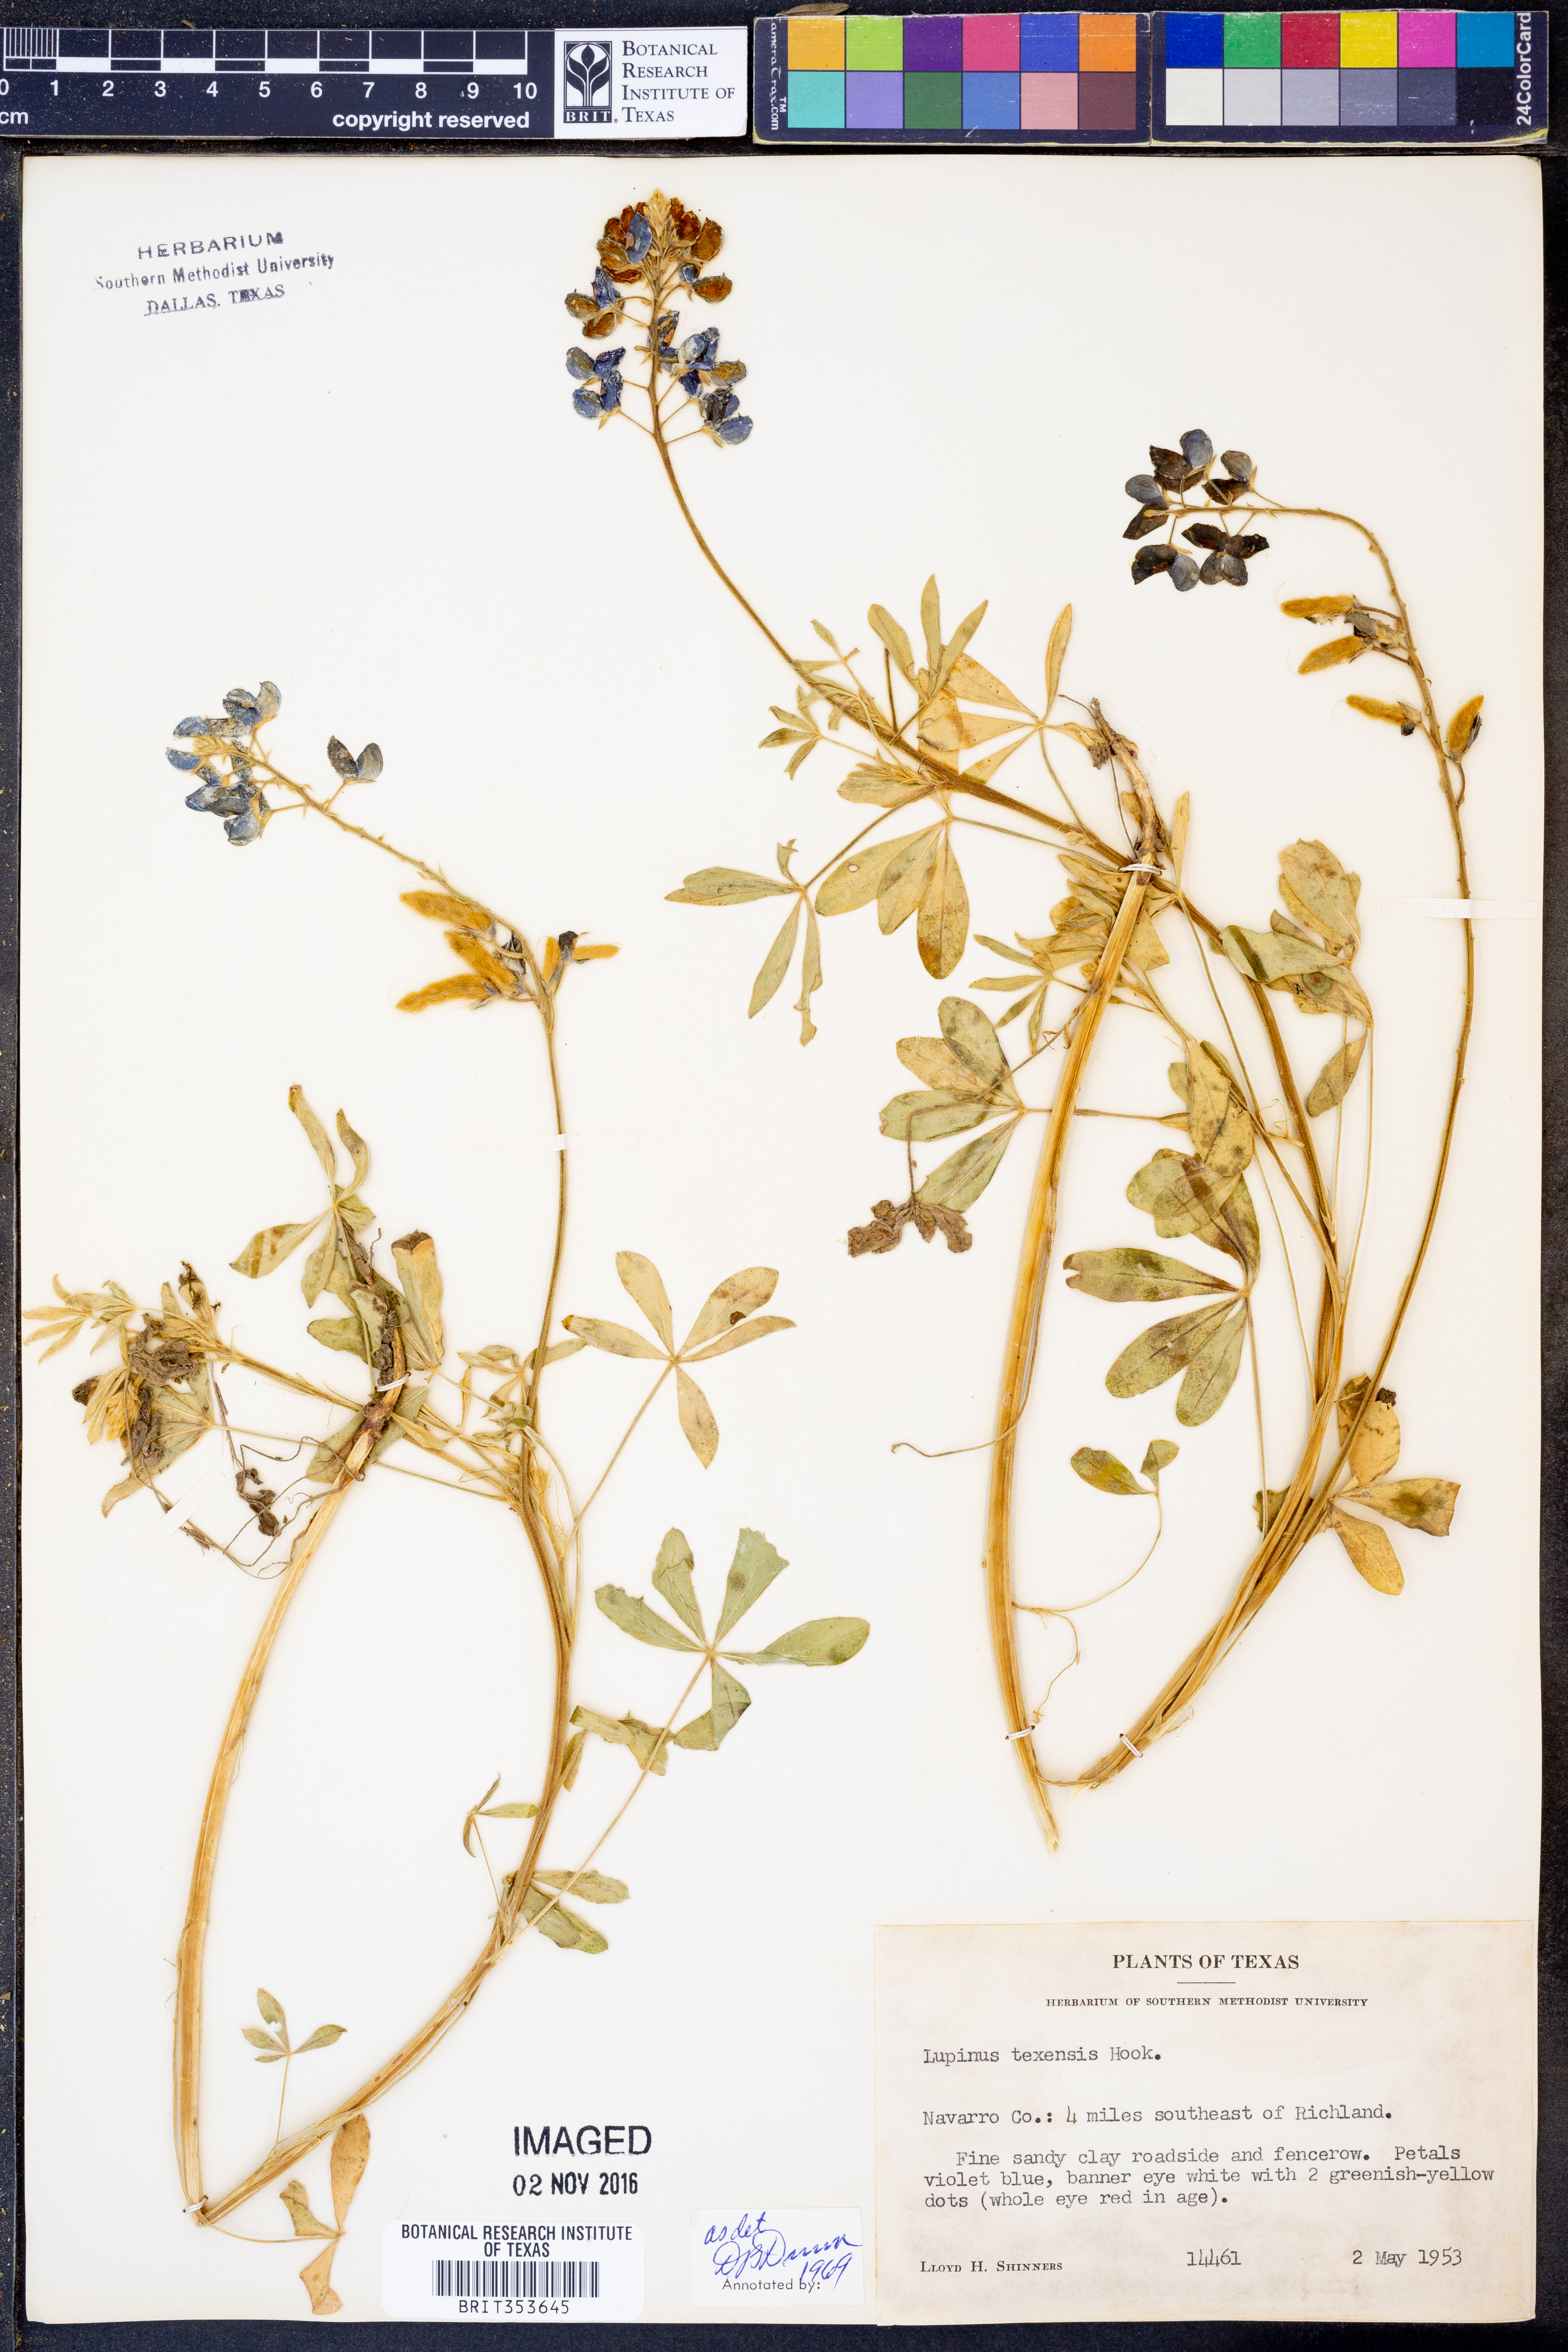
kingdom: Plantae
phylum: Tracheophyta
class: Magnoliopsida
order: Fabales
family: Fabaceae
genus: Lupinus
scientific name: Lupinus texensis
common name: Texas bluebonnet
